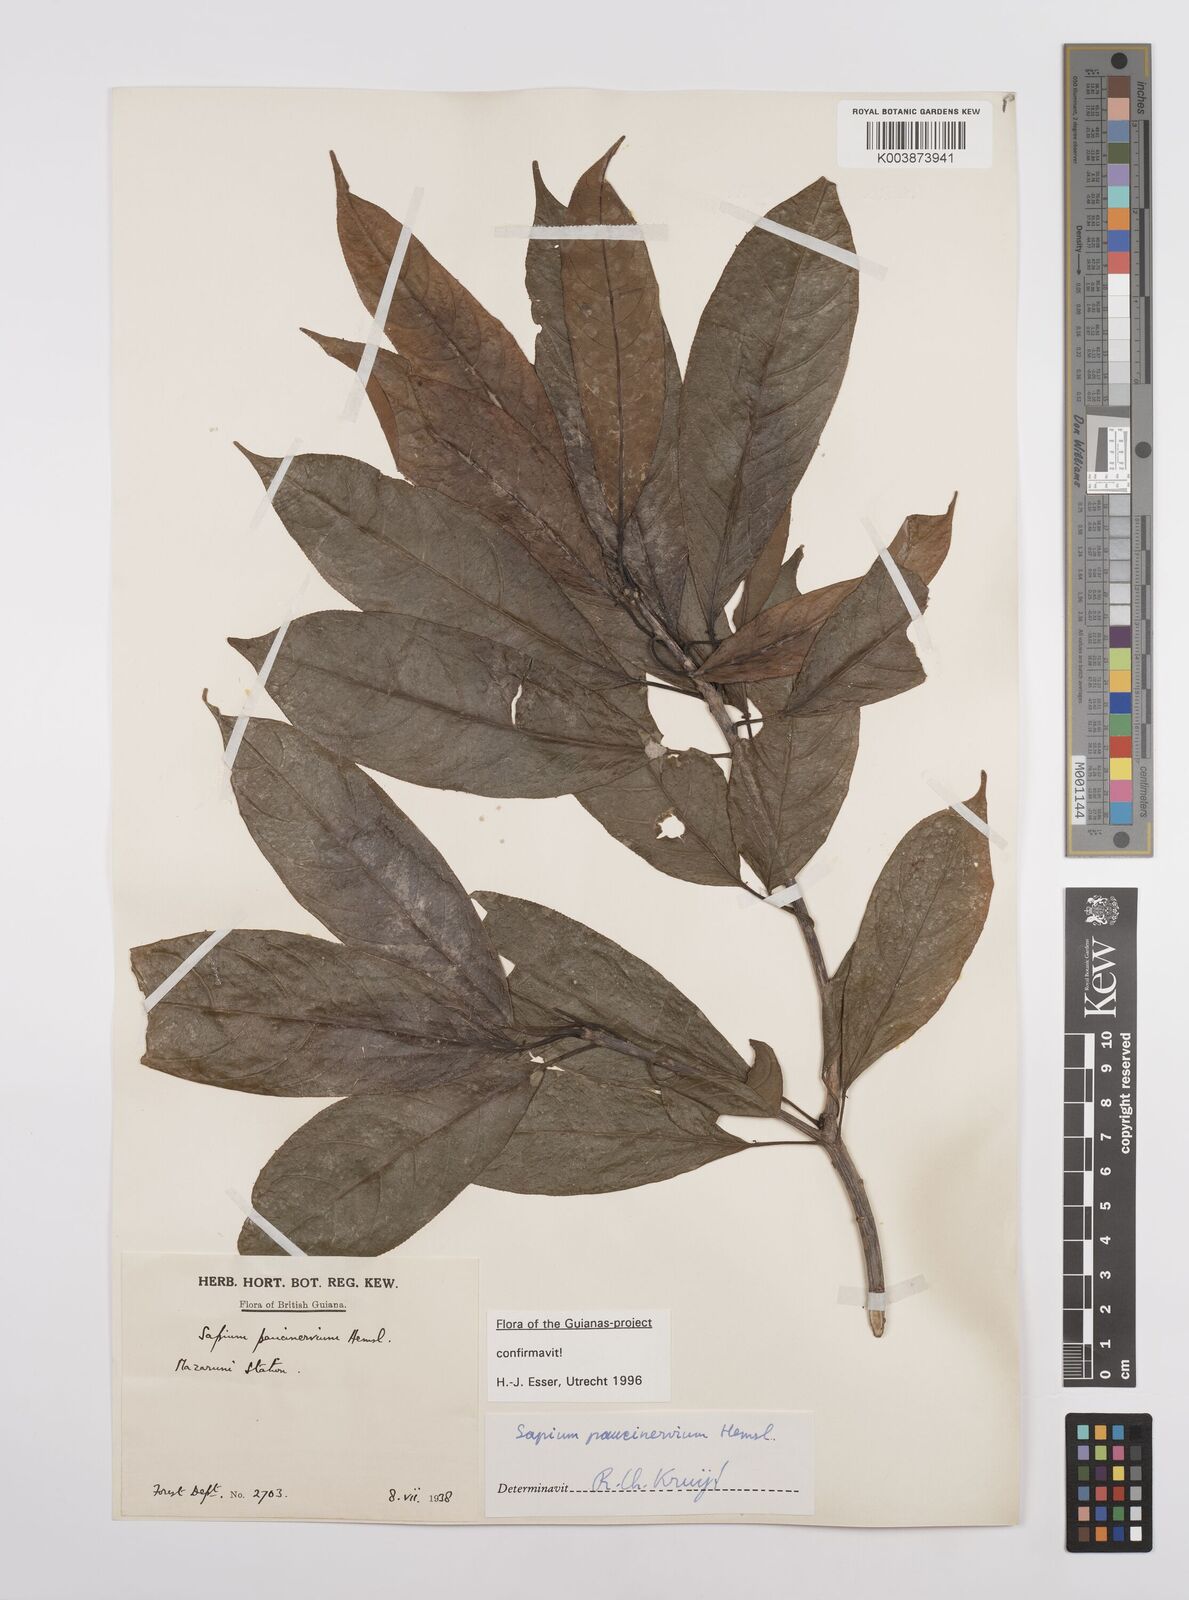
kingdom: Plantae
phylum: Tracheophyta
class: Magnoliopsida
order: Malpighiales
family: Euphorbiaceae
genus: Sapium
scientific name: Sapium paucinervium
